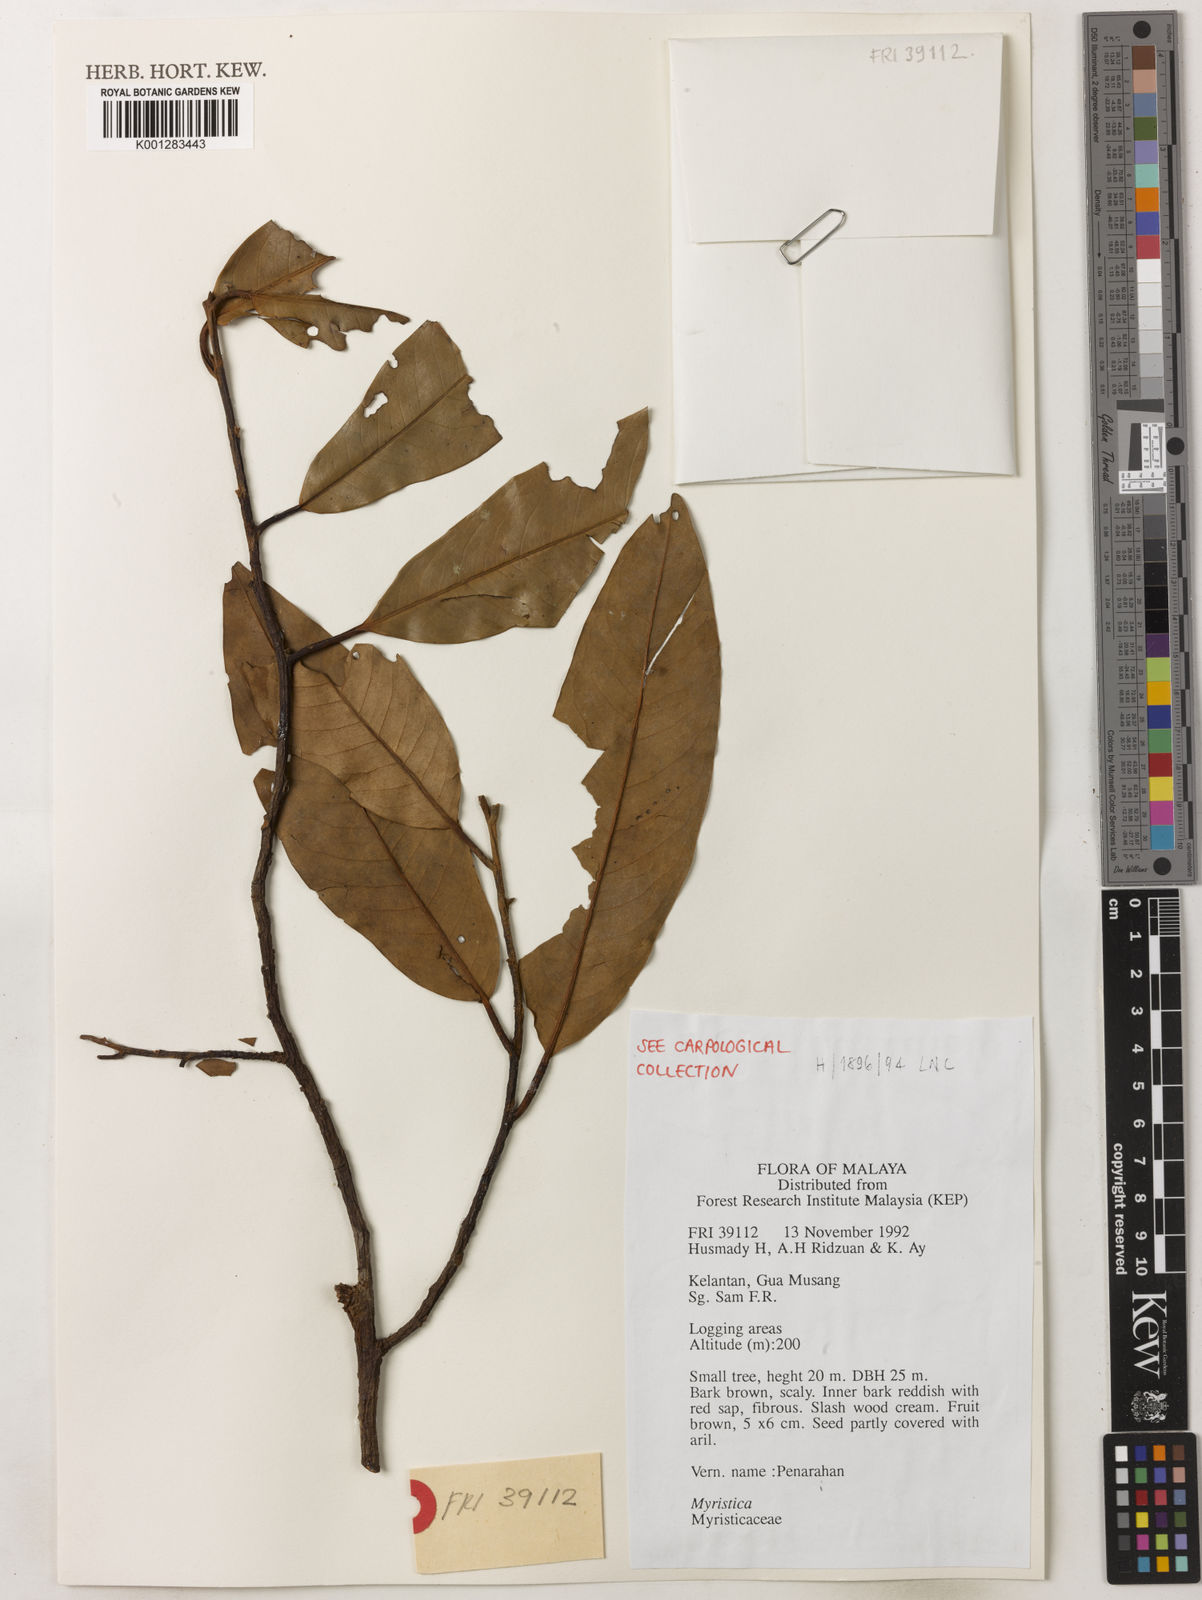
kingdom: Plantae
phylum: Tracheophyta
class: Magnoliopsida
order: Magnoliales
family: Myristicaceae
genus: Myristica
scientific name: Myristica
